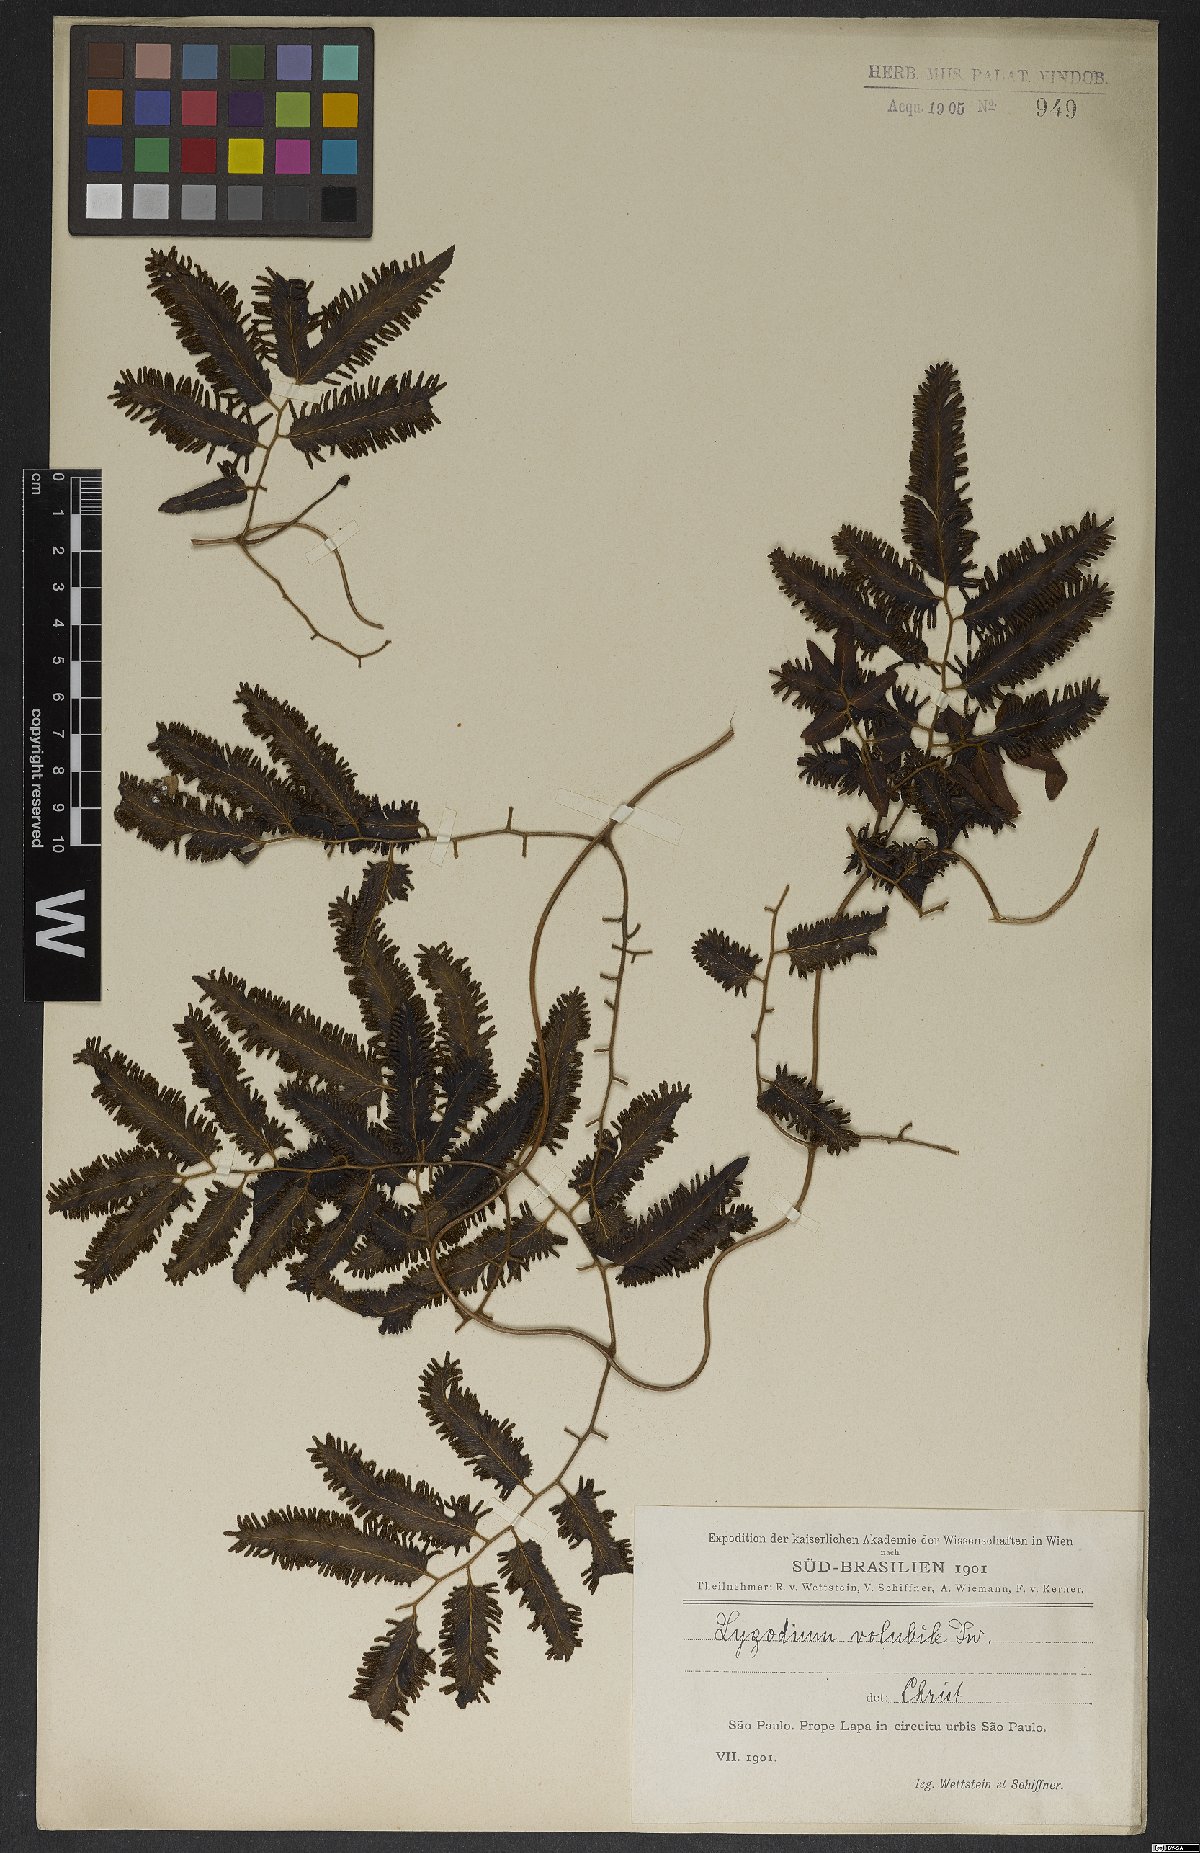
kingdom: Plantae
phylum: Tracheophyta
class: Polypodiopsida
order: Schizaeales
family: Lygodiaceae
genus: Lygodium
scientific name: Lygodium volubile
